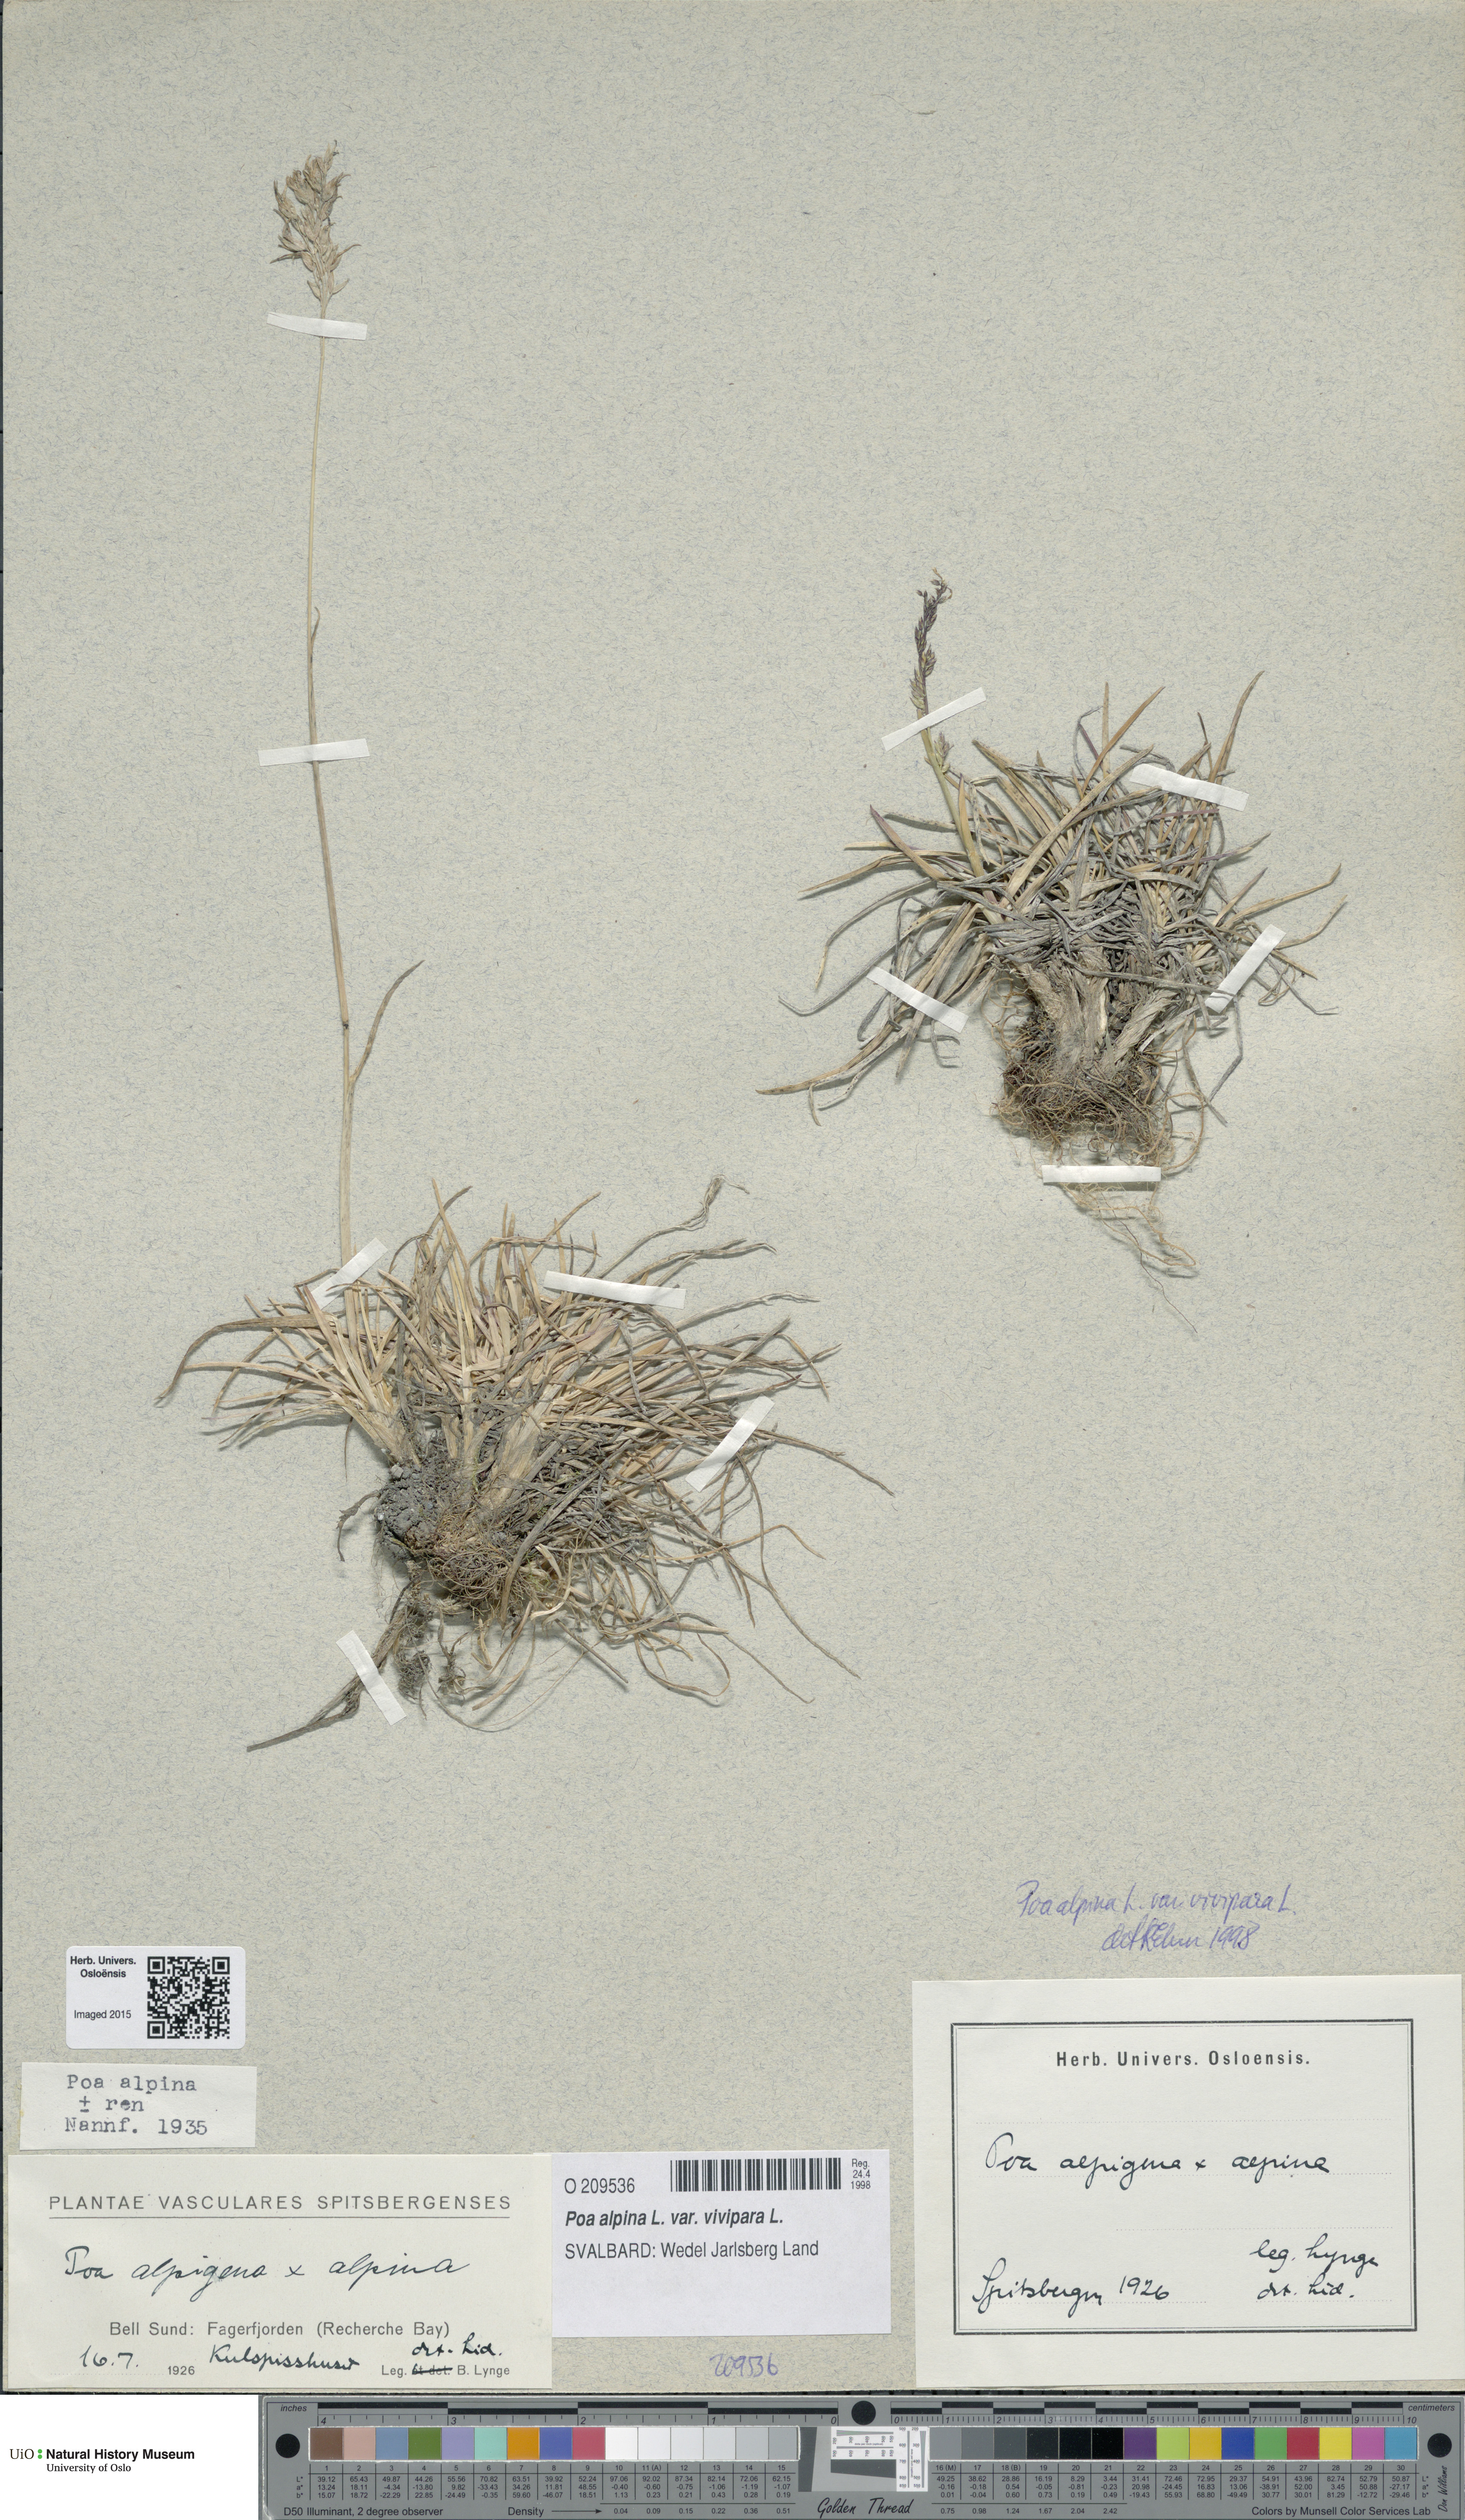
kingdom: Plantae
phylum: Tracheophyta
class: Liliopsida
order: Poales
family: Poaceae
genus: Poa
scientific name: Poa alpina
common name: Alpine bluegrass
